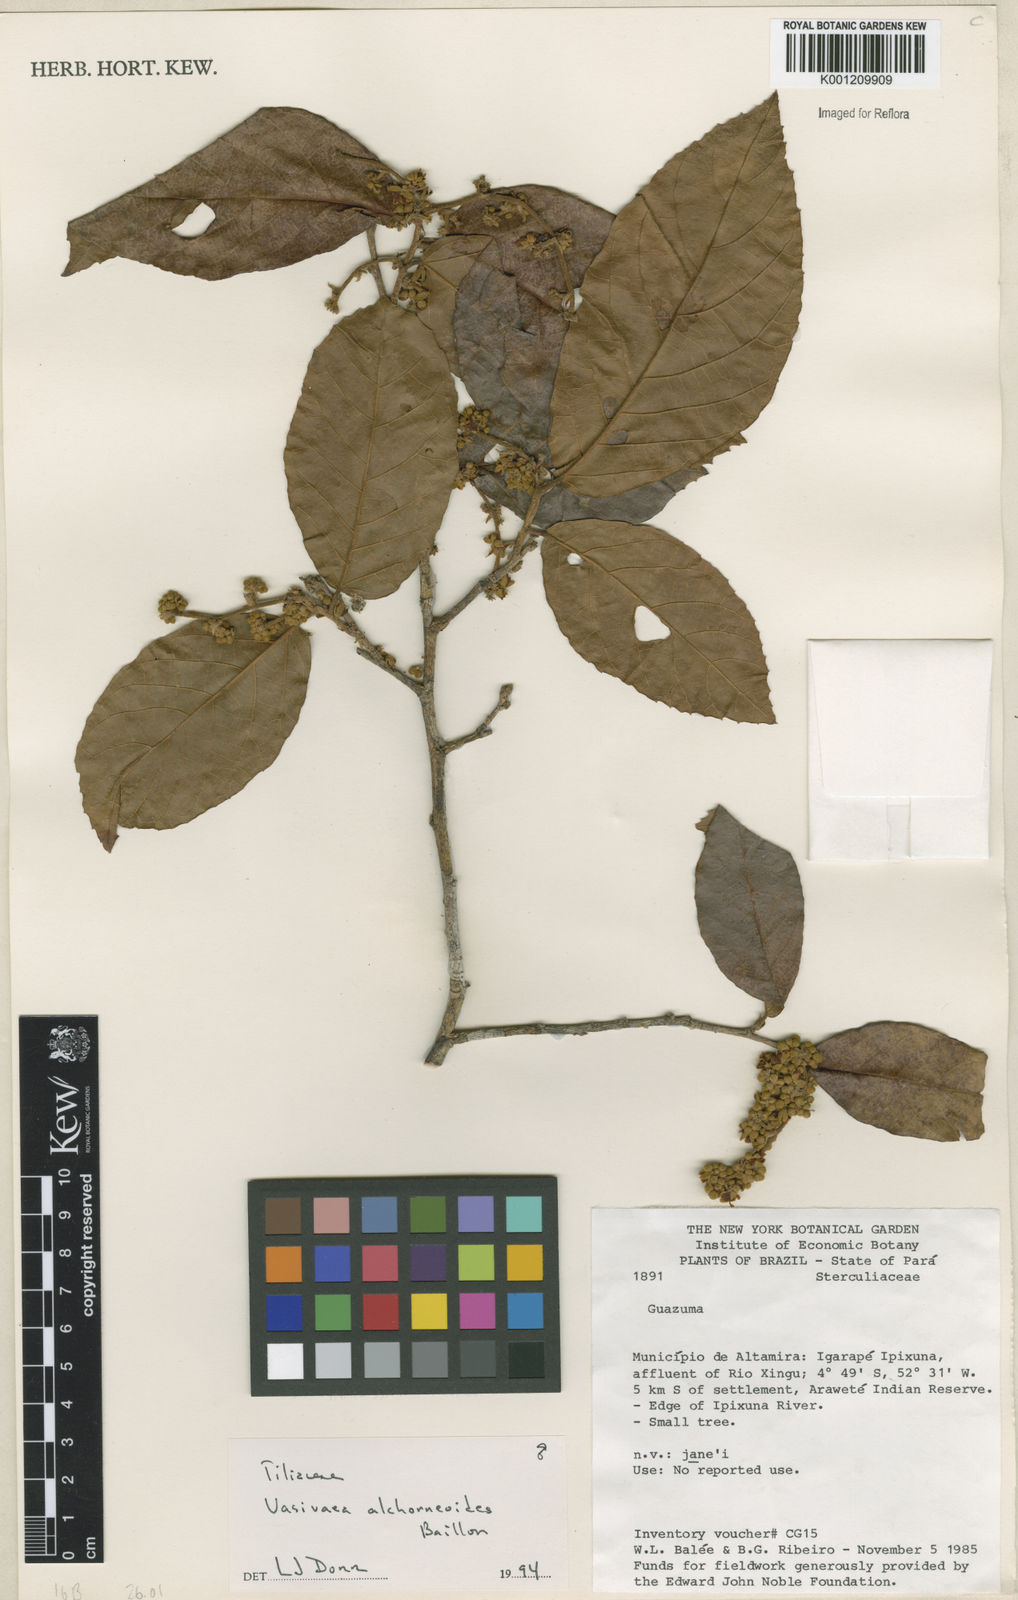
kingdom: Plantae
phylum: Tracheophyta
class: Magnoliopsida
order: Malvales
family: Malvaceae
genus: Vasivaea
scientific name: Vasivaea alchorneoides
